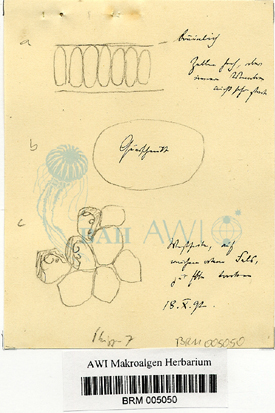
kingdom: Plantae
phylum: Chlorophyta
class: Ulvophyceae
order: Ulvales
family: Ulvaceae
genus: Ulva
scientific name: Ulva
